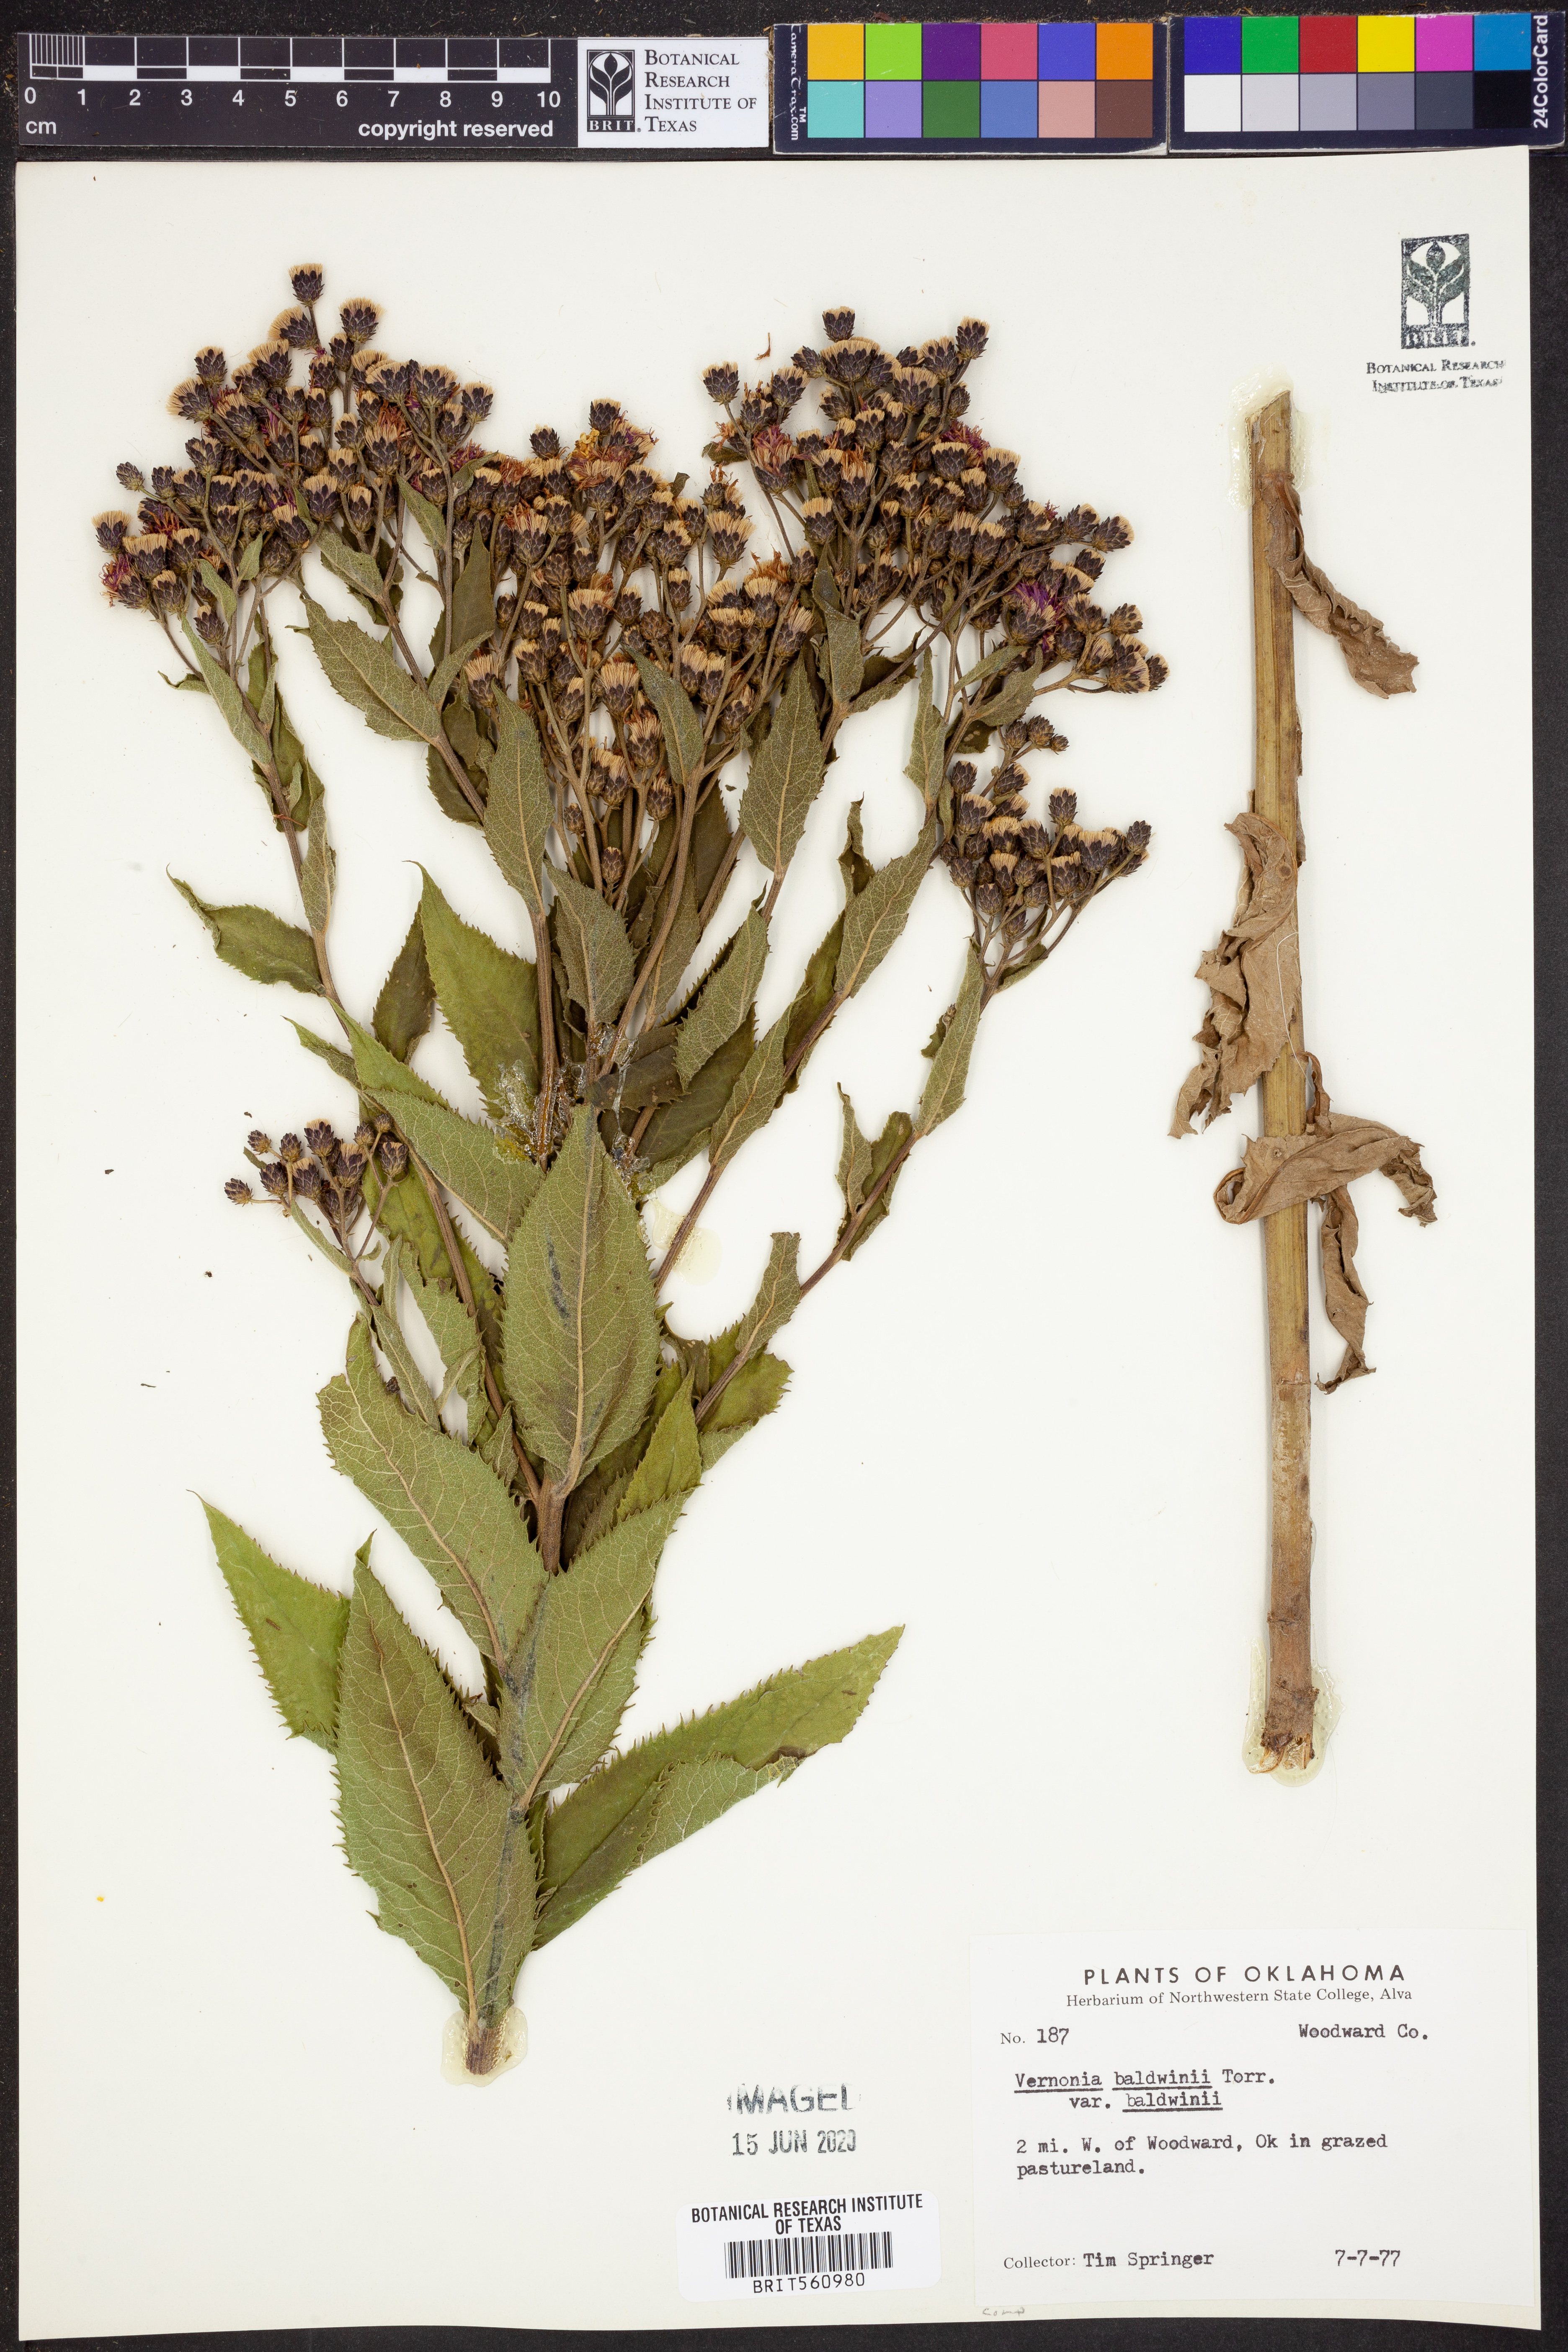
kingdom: Plantae
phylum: Tracheophyta
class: Magnoliopsida
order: Asterales
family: Asteraceae
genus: Vernonia
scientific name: Vernonia baldwinii
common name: Western ironweed
